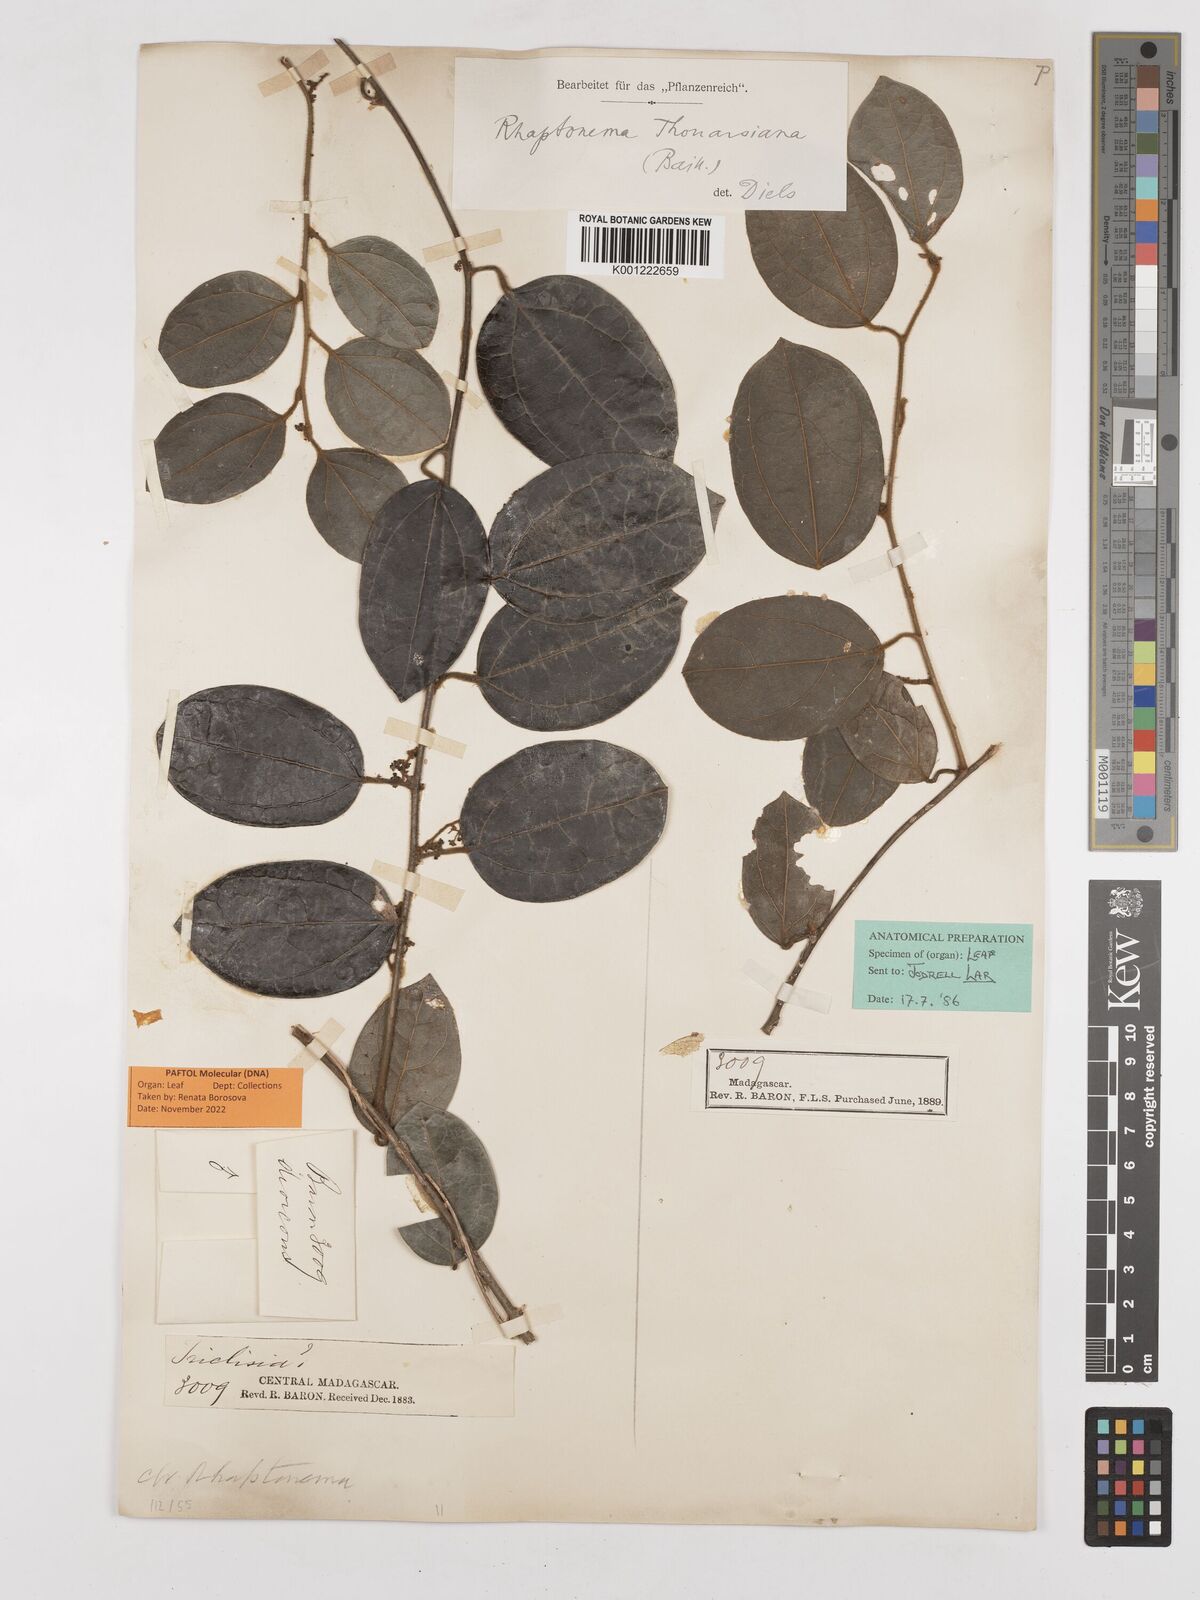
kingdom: Plantae
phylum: Tracheophyta
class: Magnoliopsida
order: Ranunculales
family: Menispermaceae
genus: Rhaptonema
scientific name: Rhaptonema thouarsiana
